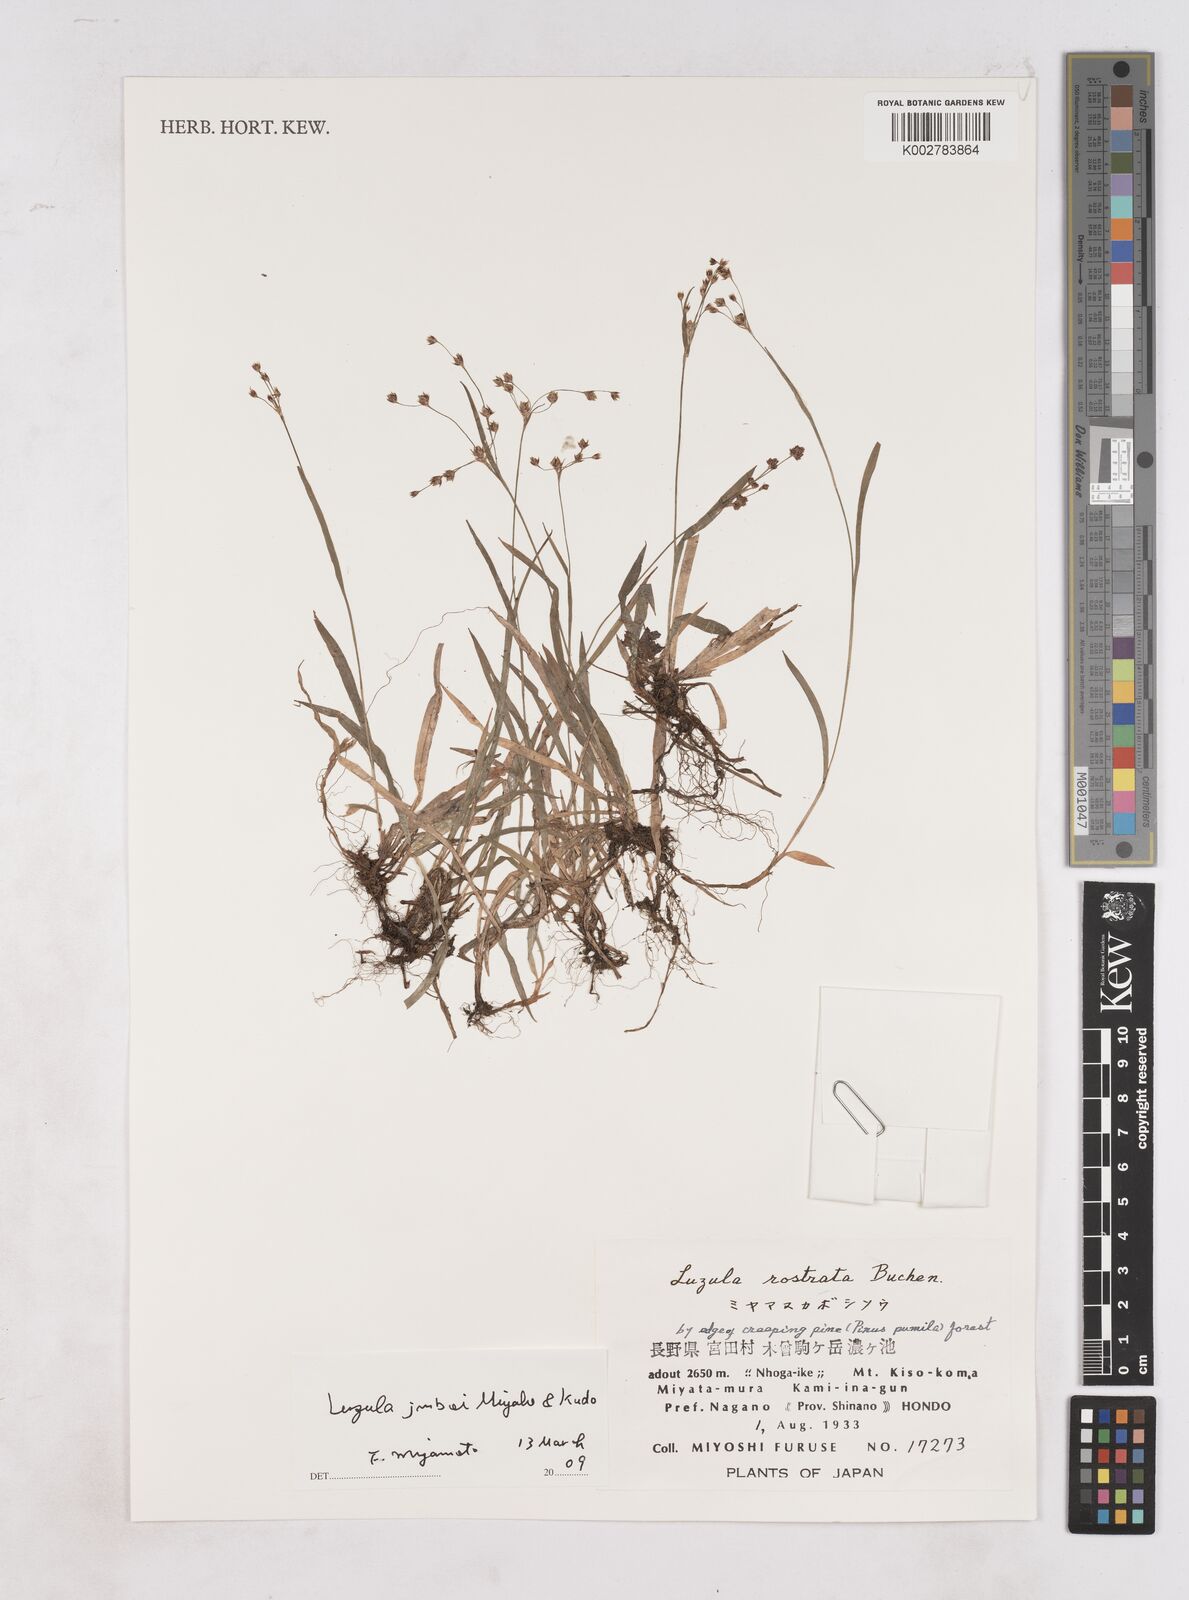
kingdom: Plantae
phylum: Tracheophyta
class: Liliopsida
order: Poales
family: Juncaceae
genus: Luzula
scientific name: Luzula plumosa
